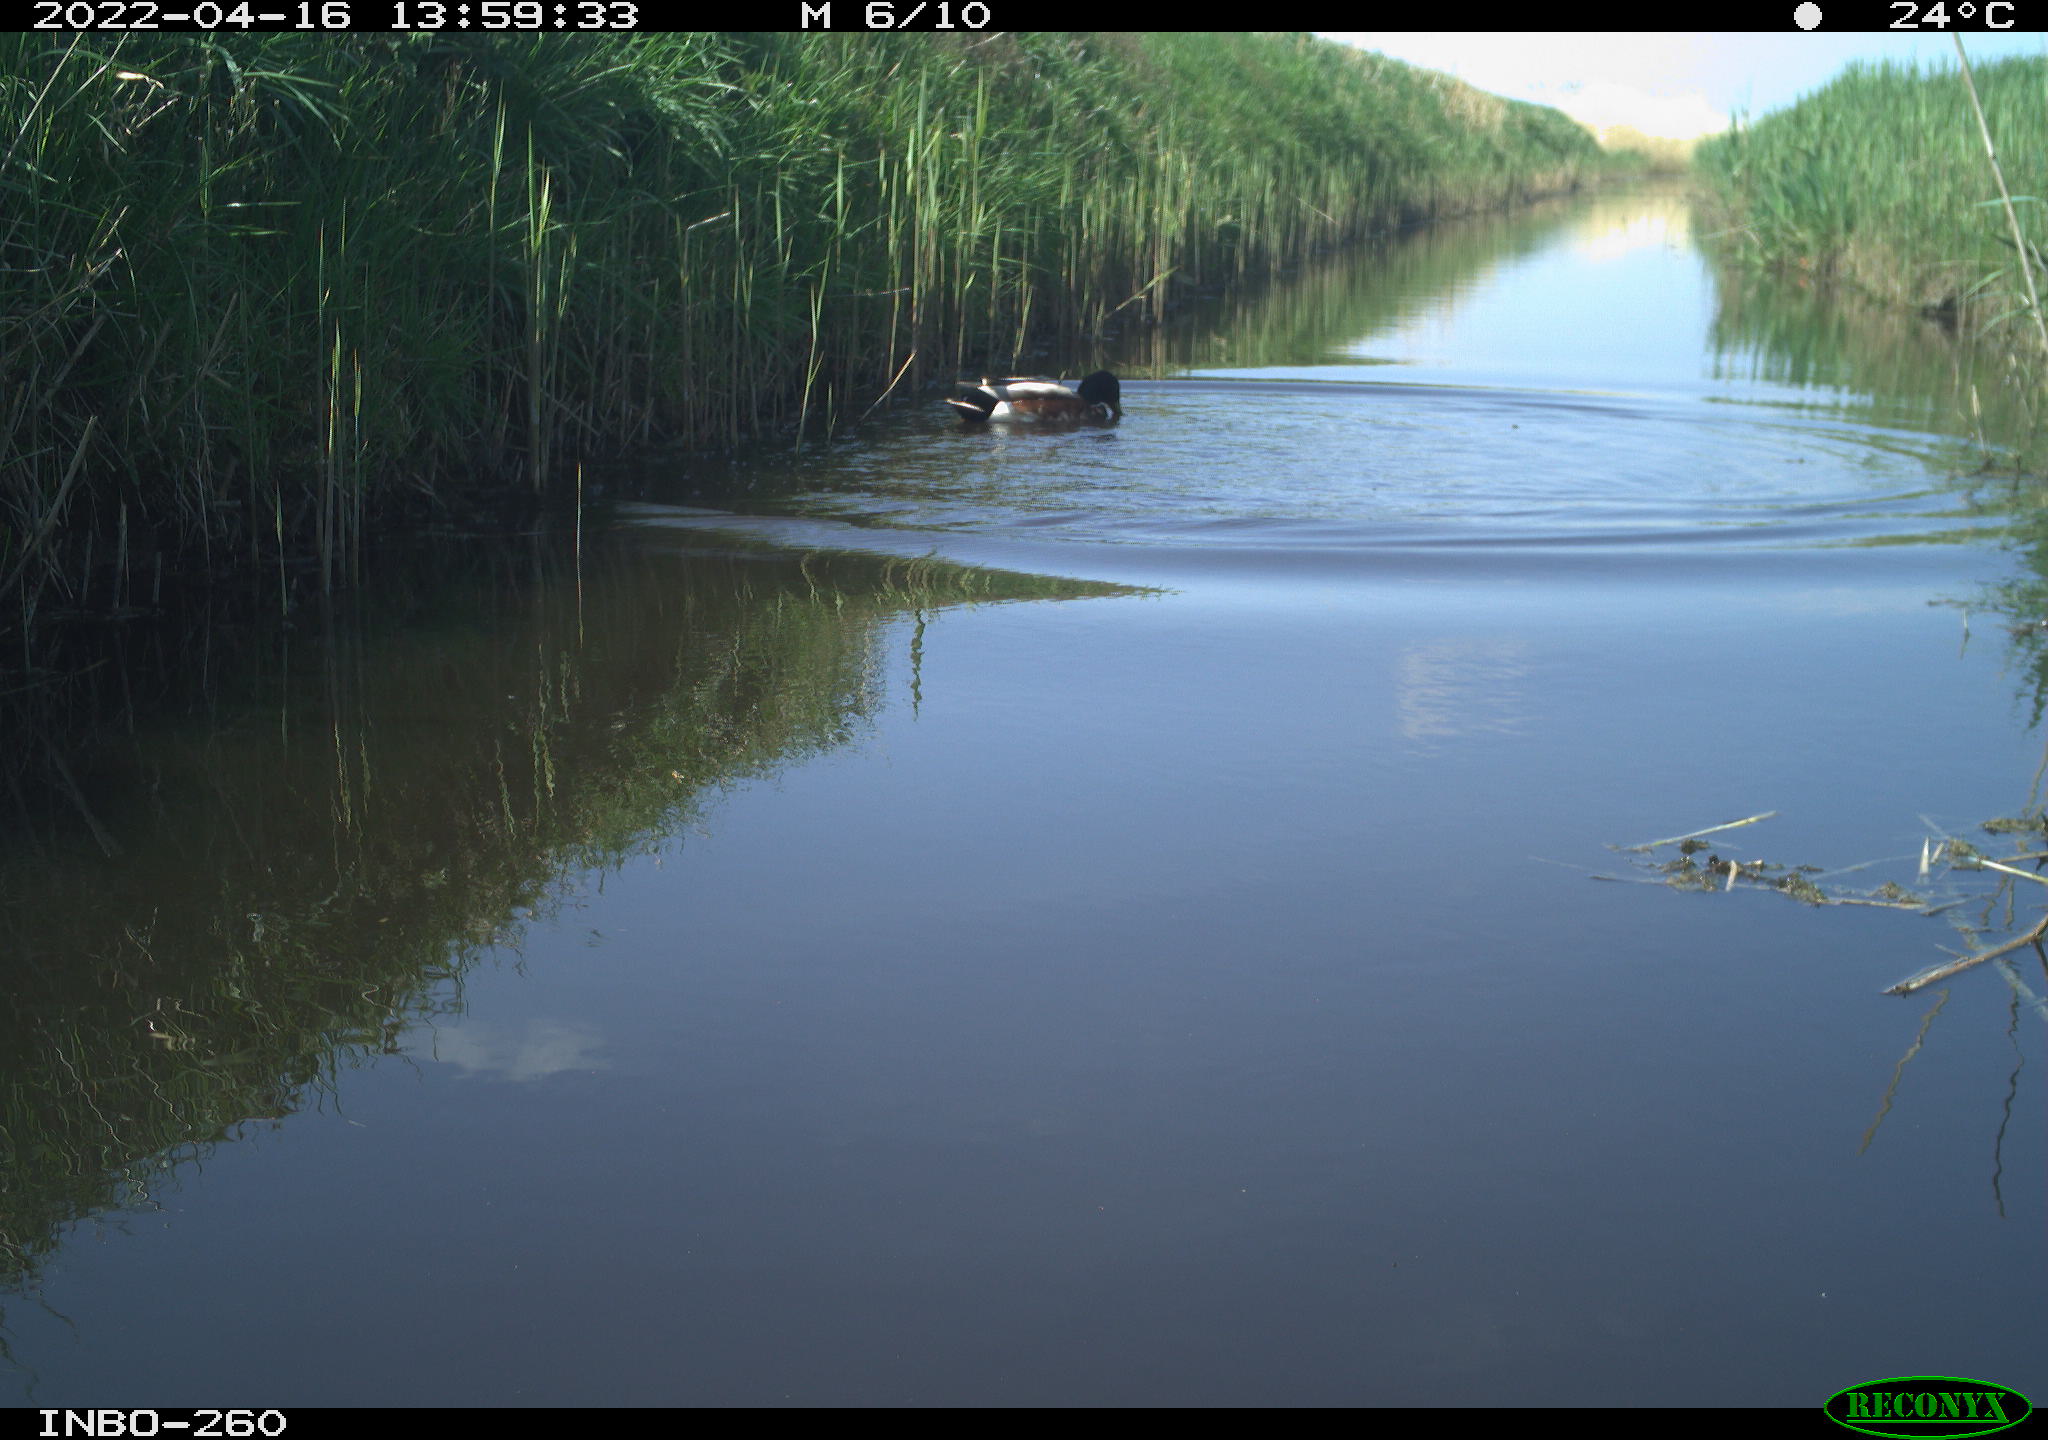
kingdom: Animalia
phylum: Chordata
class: Aves
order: Anseriformes
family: Anatidae
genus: Anas
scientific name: Anas platyrhynchos
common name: Mallard
